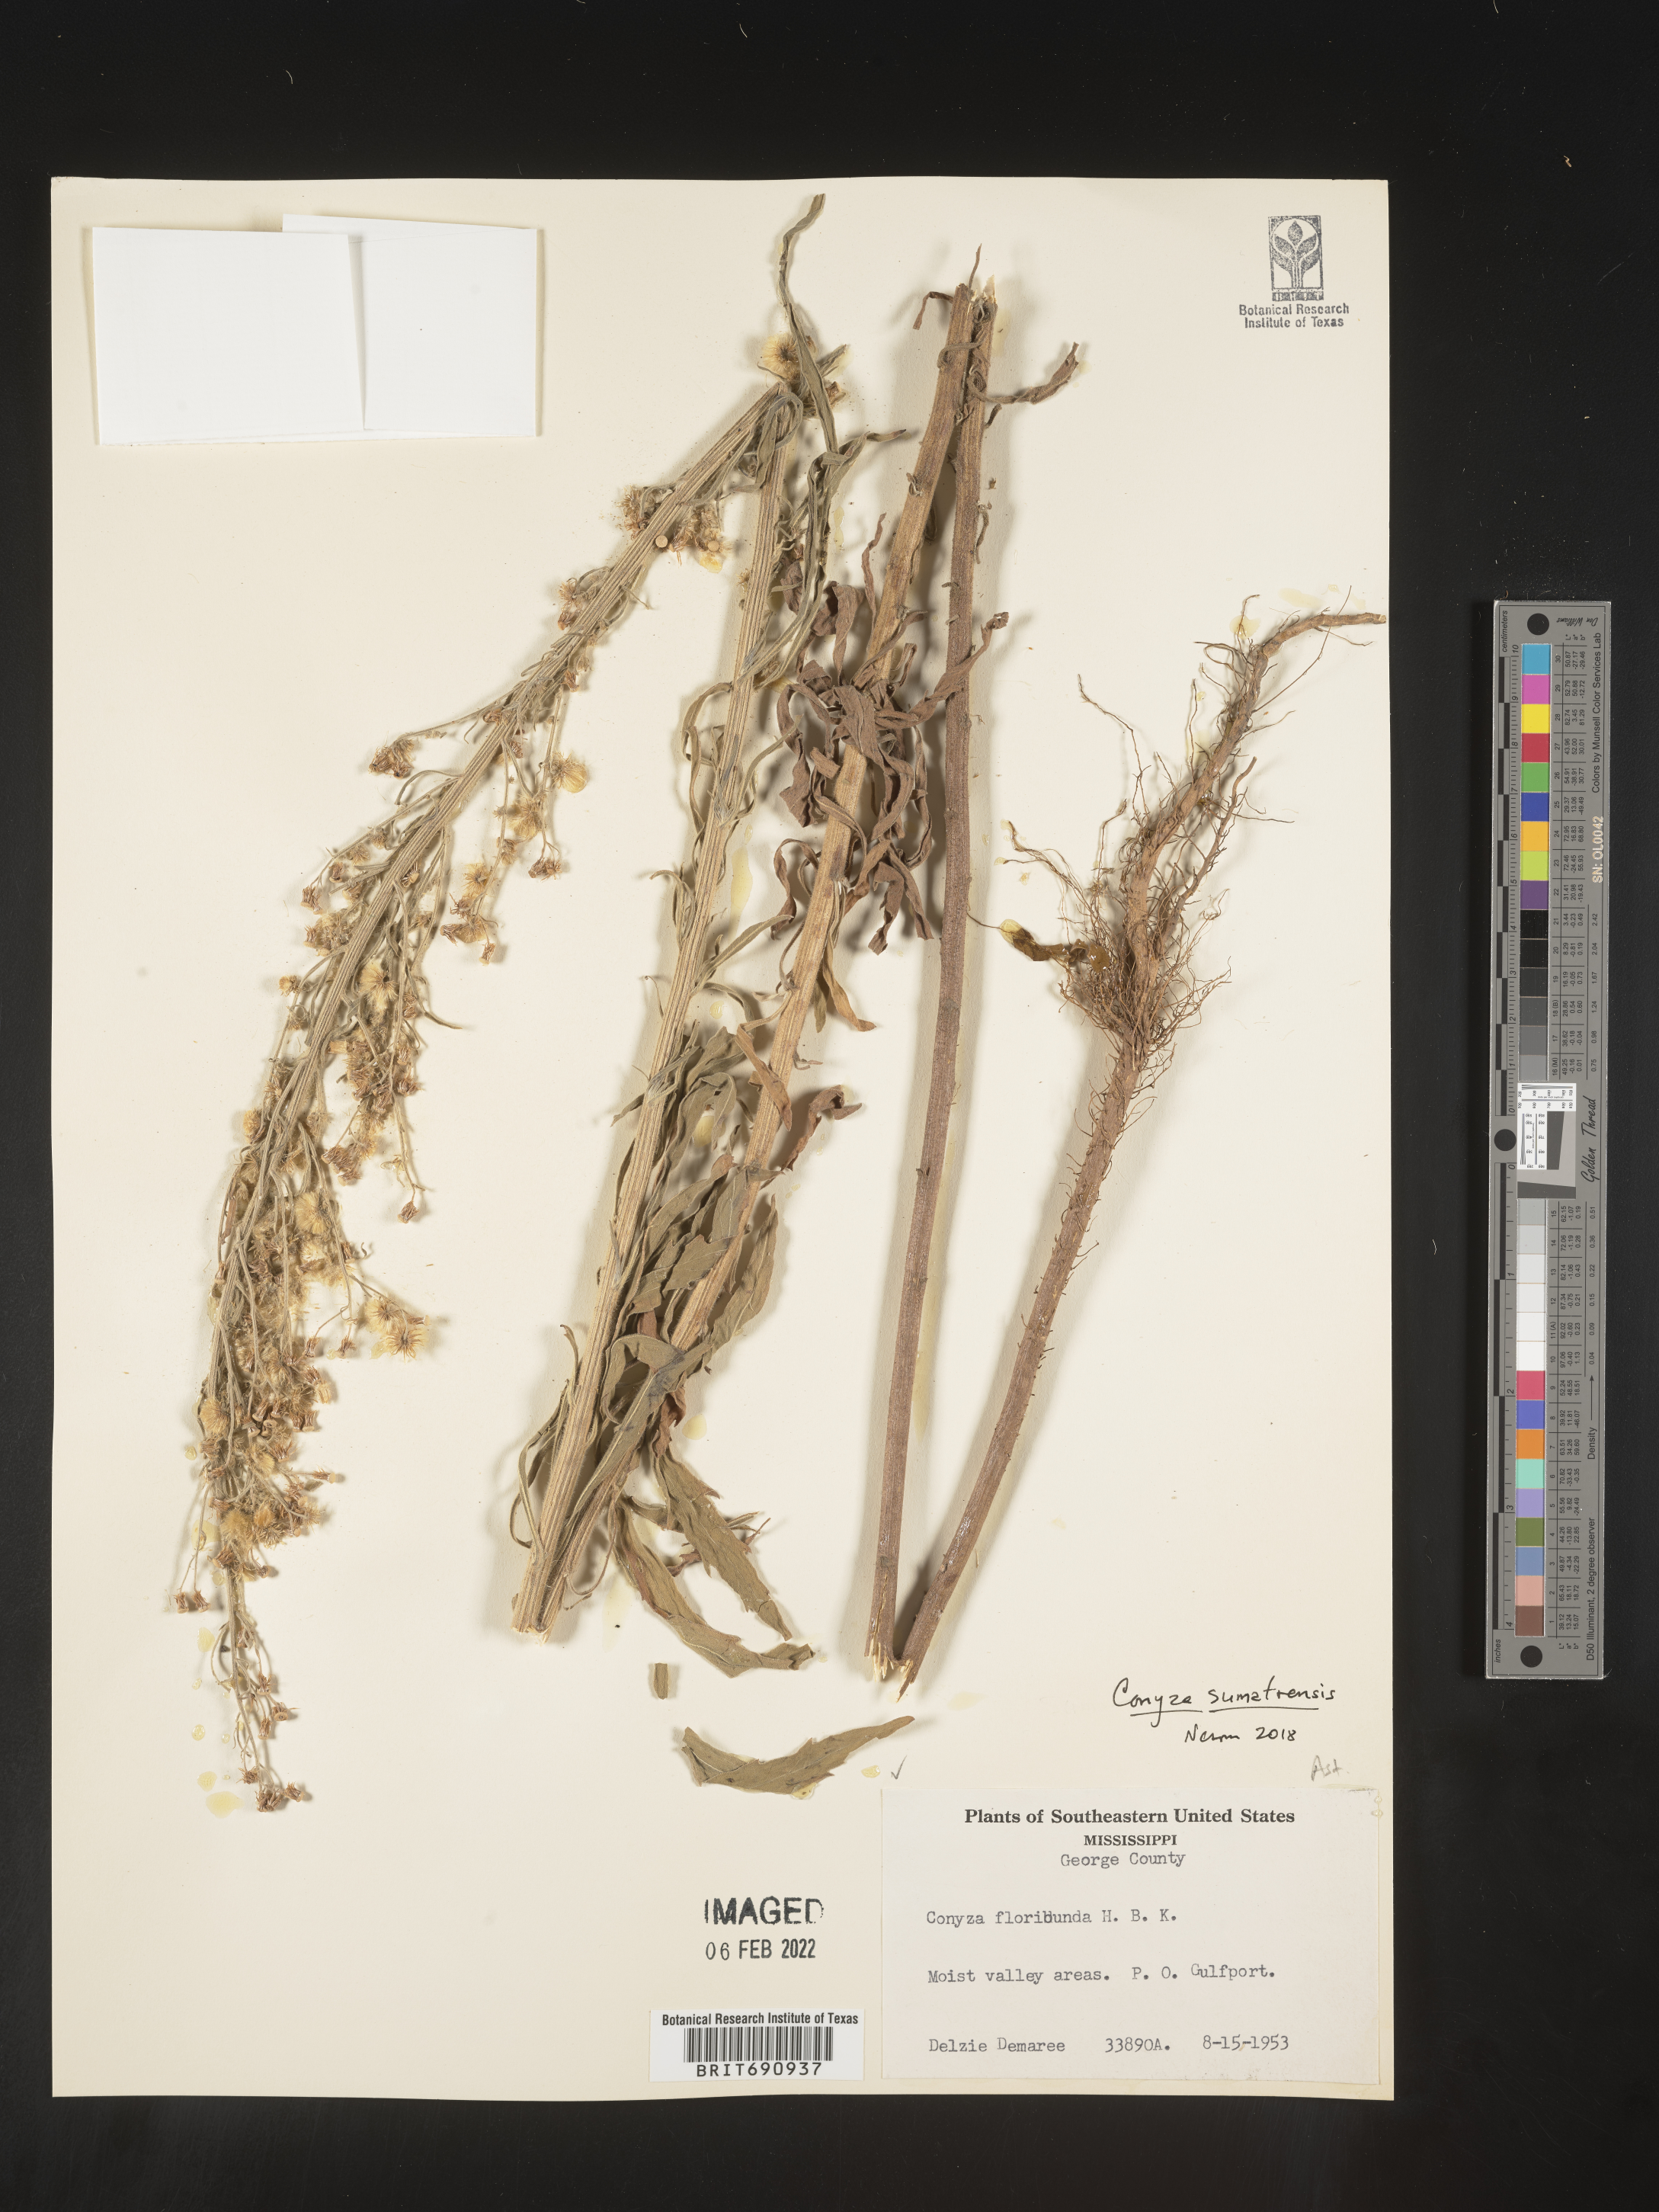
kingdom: Plantae
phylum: Tracheophyta
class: Magnoliopsida
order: Asterales
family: Asteraceae
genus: Erigeron
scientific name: Erigeron sumatrensis
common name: Daisy
